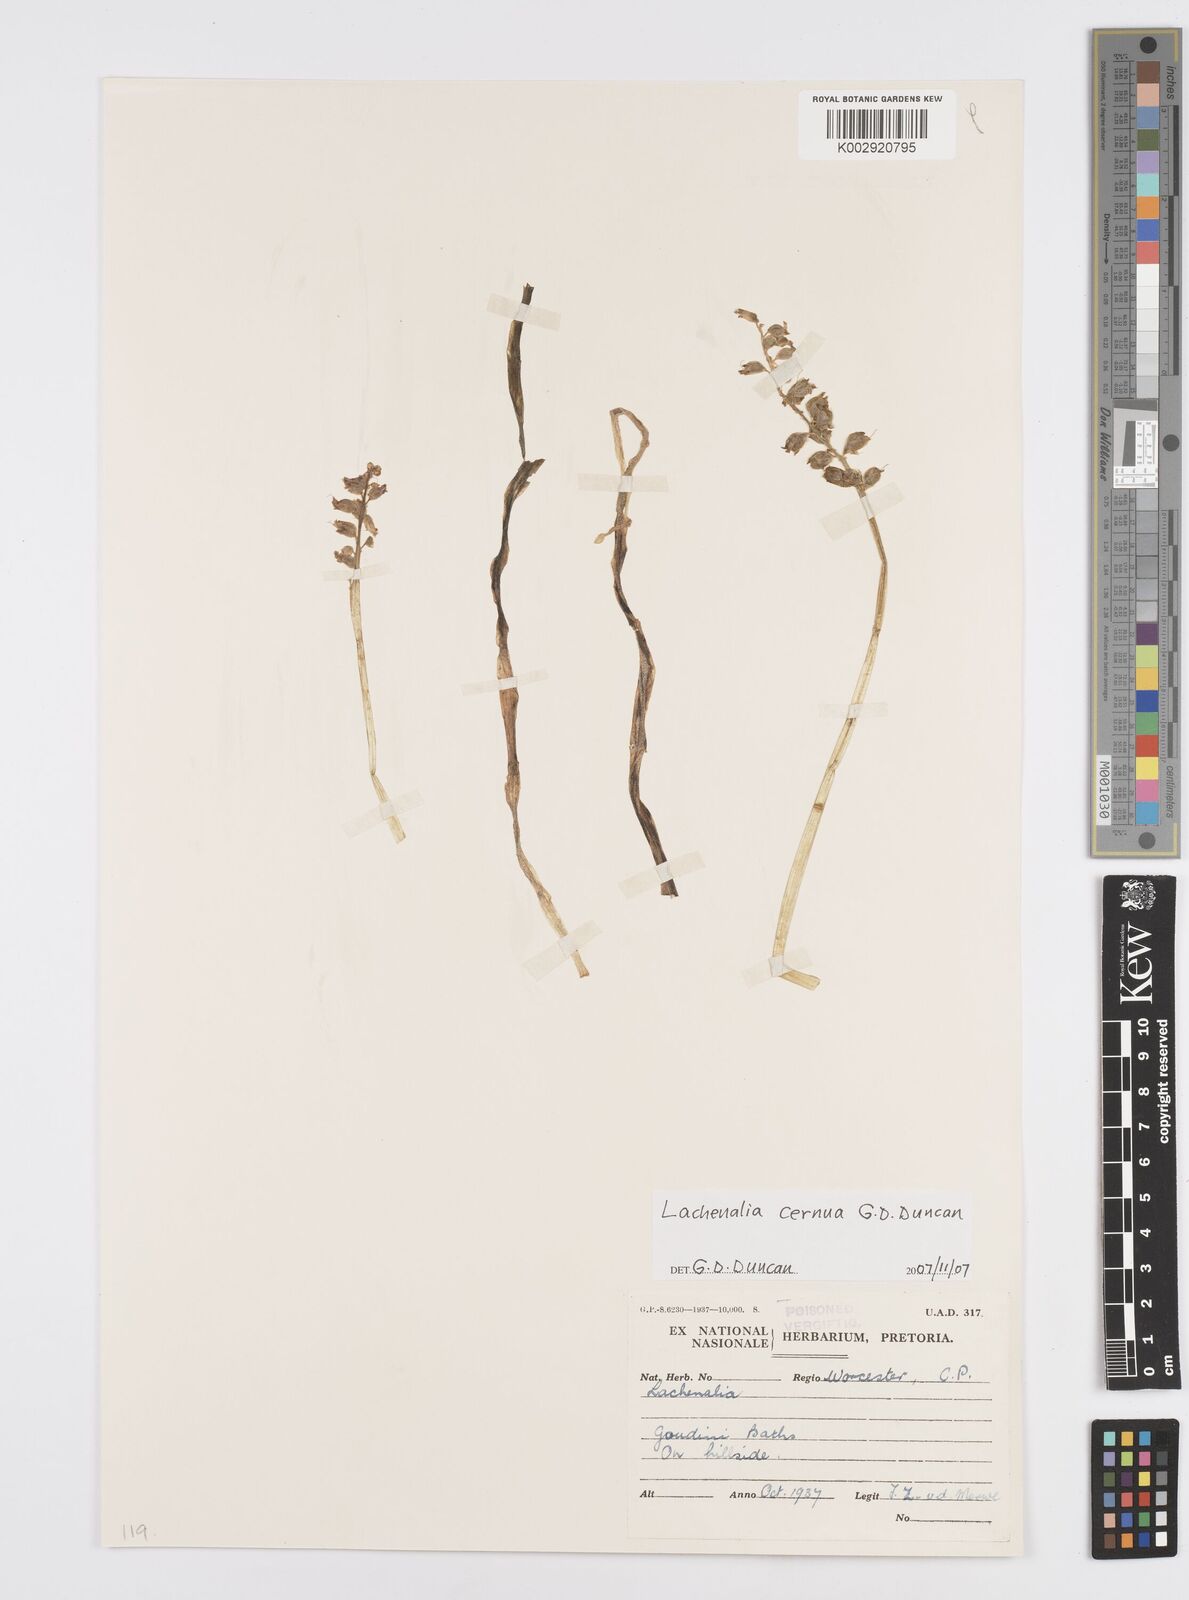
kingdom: Plantae
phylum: Tracheophyta
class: Liliopsida
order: Asparagales
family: Asparagaceae
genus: Lachenalia
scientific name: Lachenalia cernua
